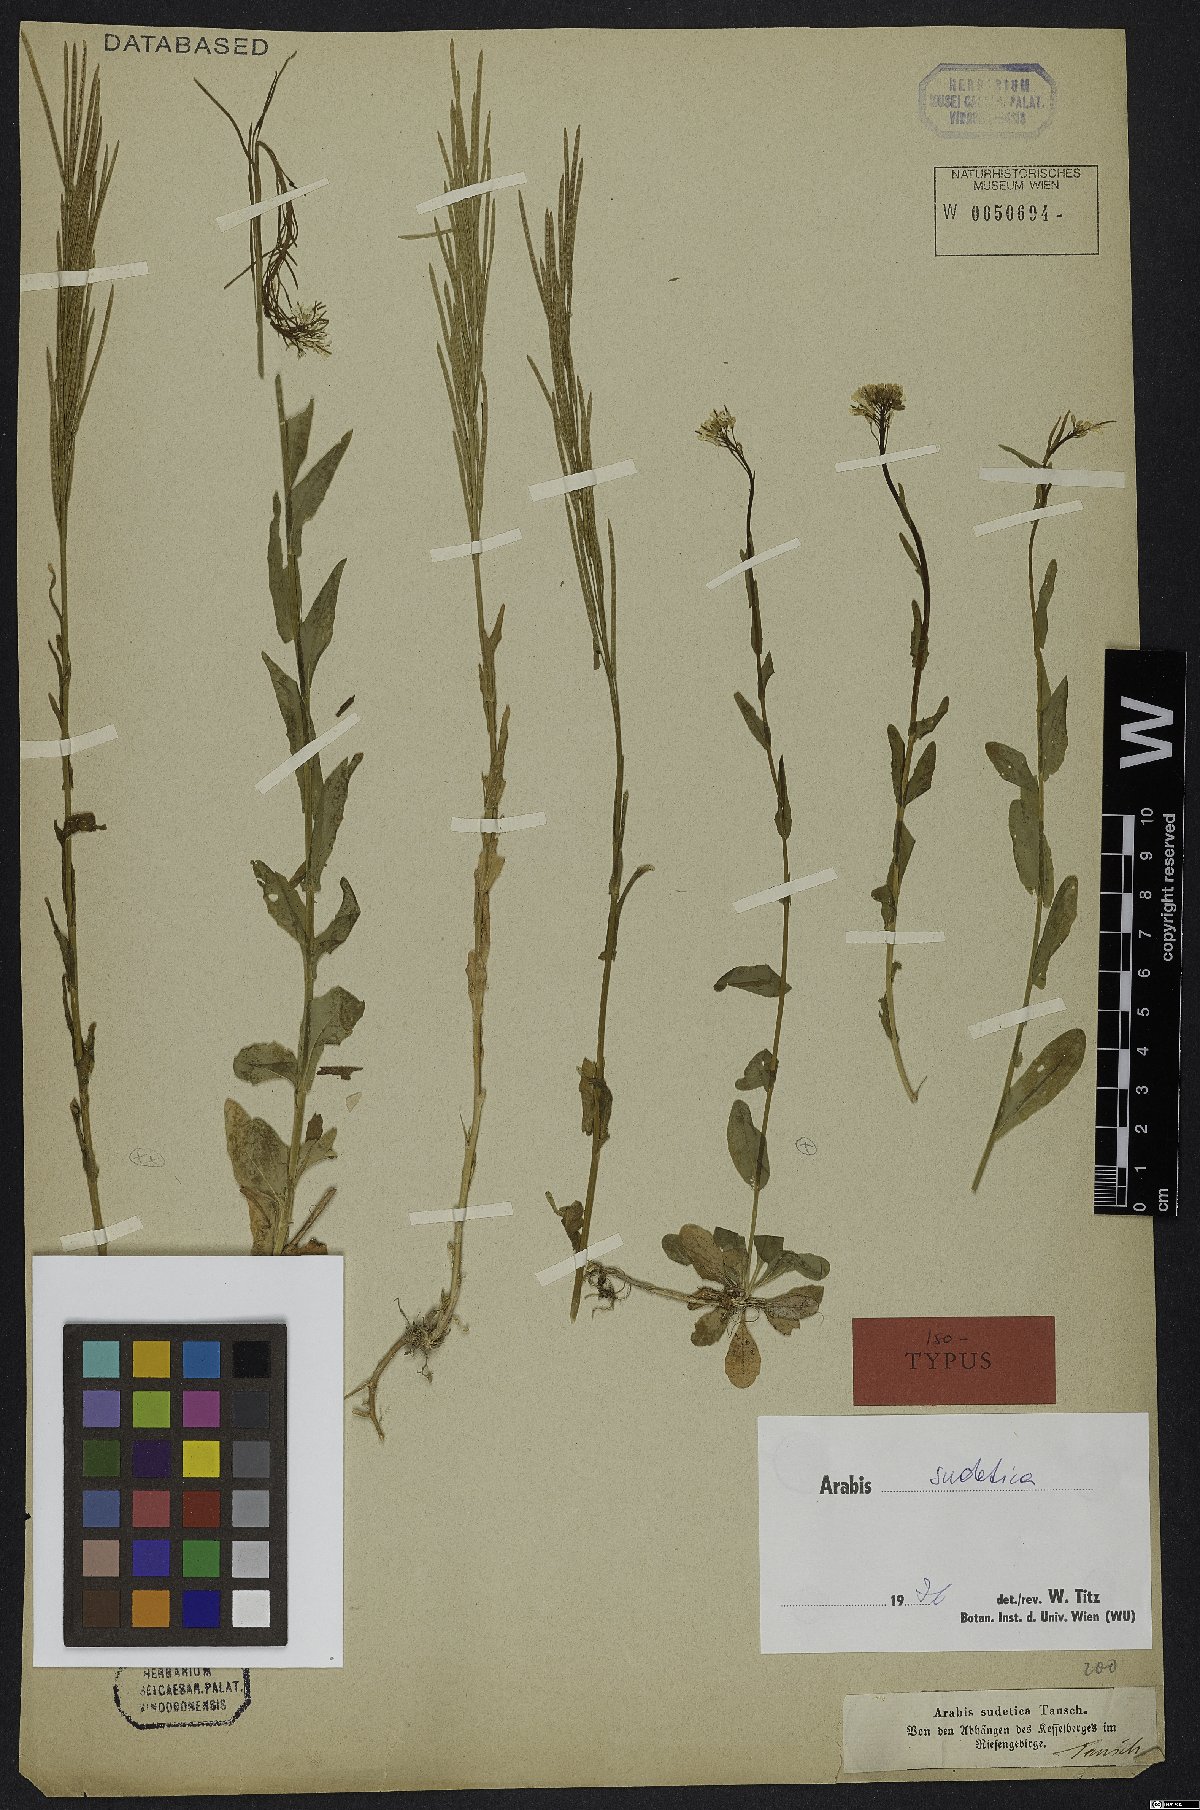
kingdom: Plantae
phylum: Tracheophyta
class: Magnoliopsida
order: Brassicales
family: Brassicaceae
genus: Arabis
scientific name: Arabis sudetica
